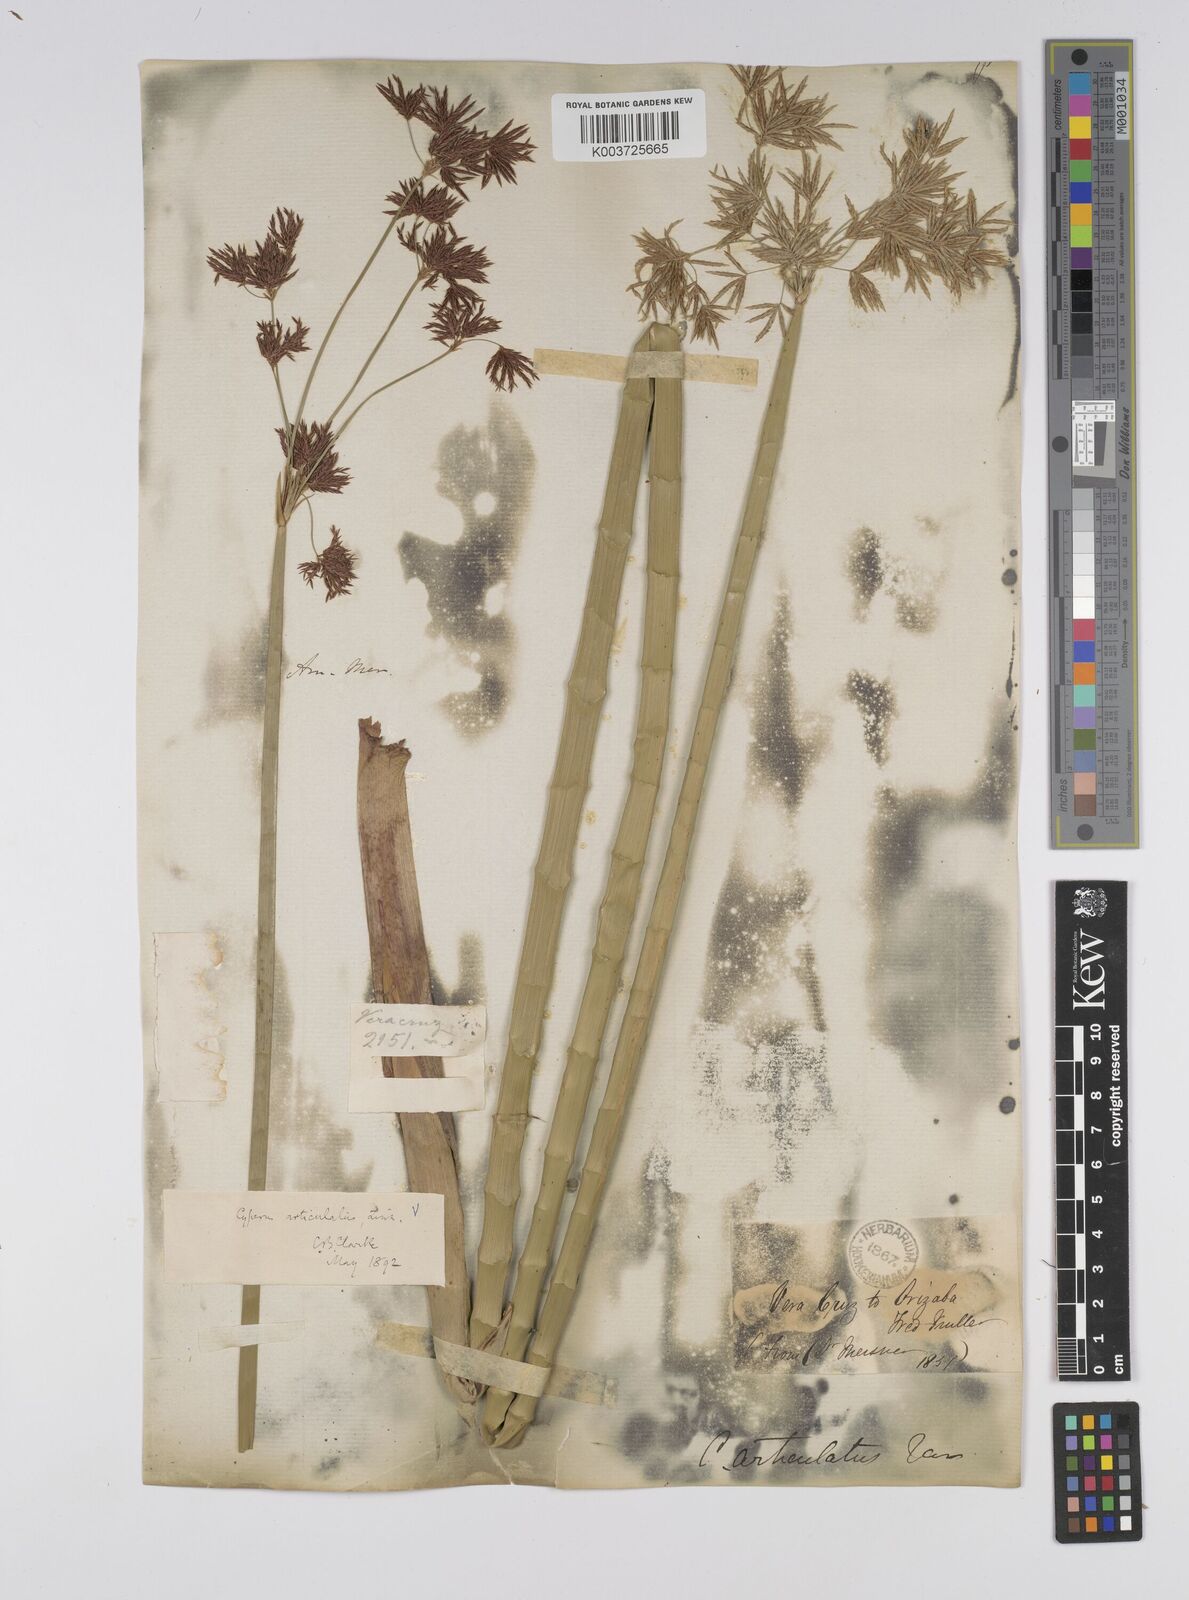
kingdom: Plantae
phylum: Tracheophyta
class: Liliopsida
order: Poales
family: Cyperaceae
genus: Cyperus
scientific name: Cyperus articulatus
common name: Jointed flatsedge
